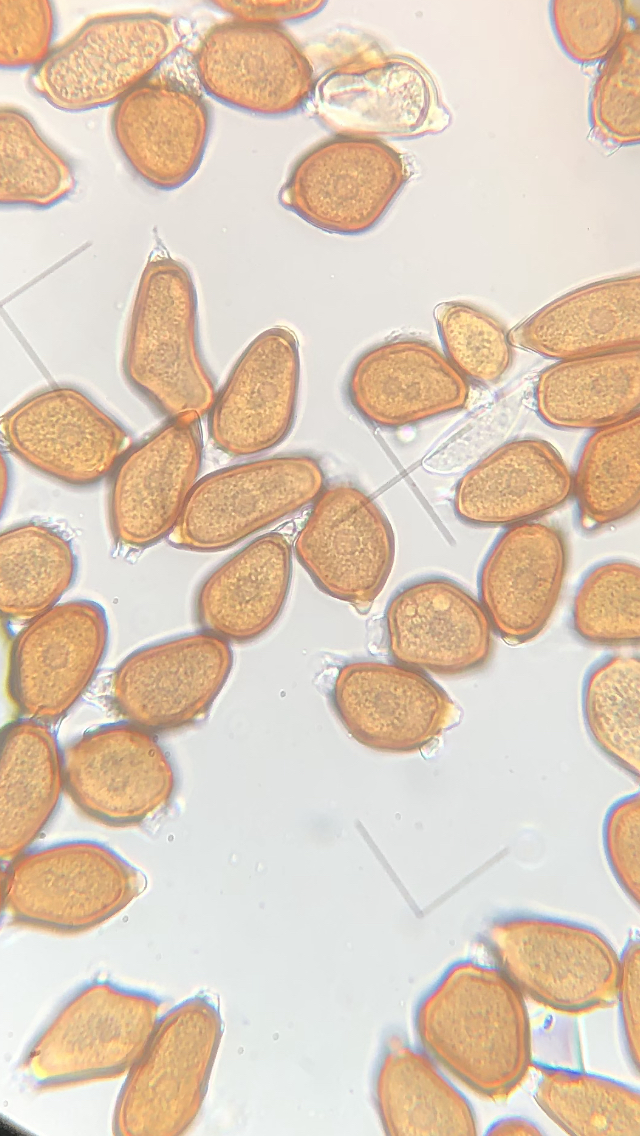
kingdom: Fungi
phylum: Basidiomycota
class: Pucciniomycetes
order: Pucciniales
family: Pucciniaceae
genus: Uromyces
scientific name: Uromyces ficariae
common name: vorterod-encellerust
